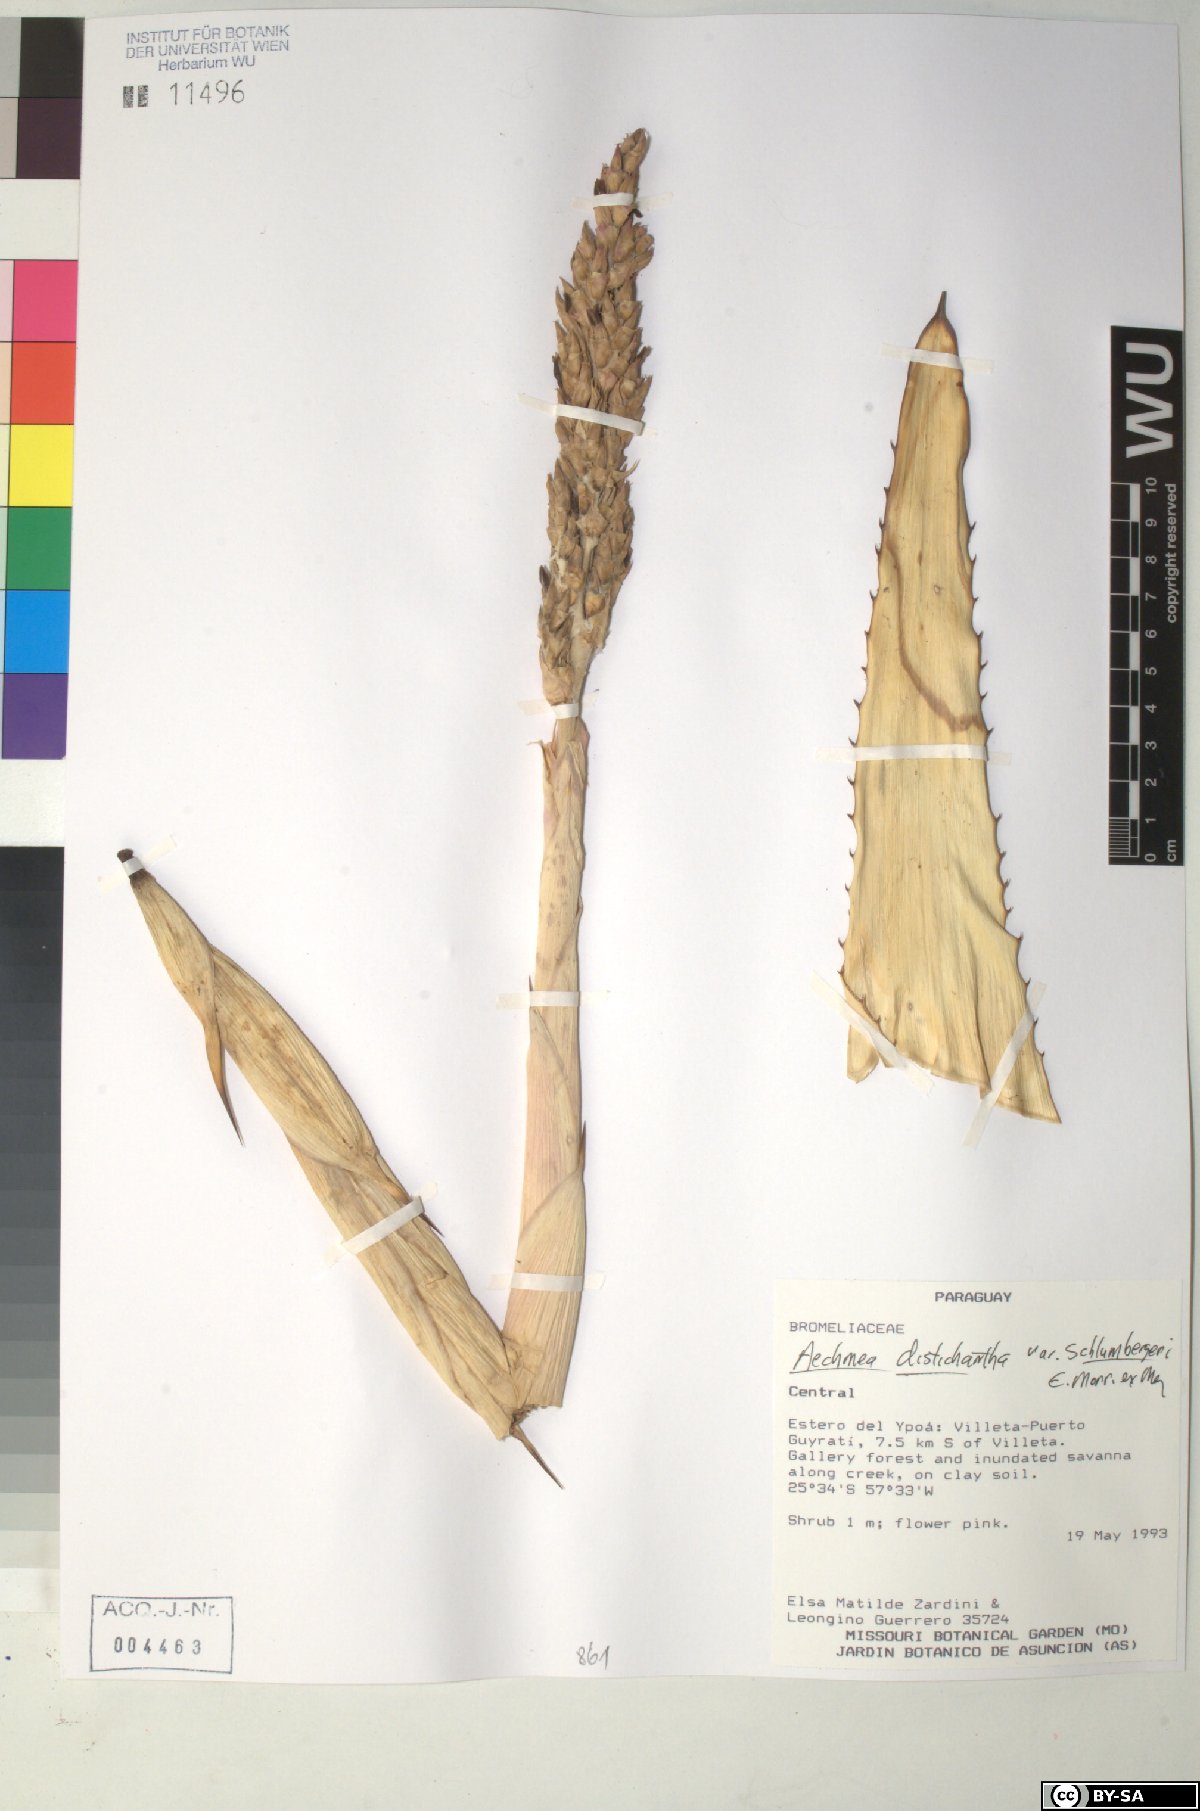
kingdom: Plantae
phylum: Tracheophyta
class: Liliopsida
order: Poales
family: Bromeliaceae
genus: Aechmea
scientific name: Aechmea distichantha
